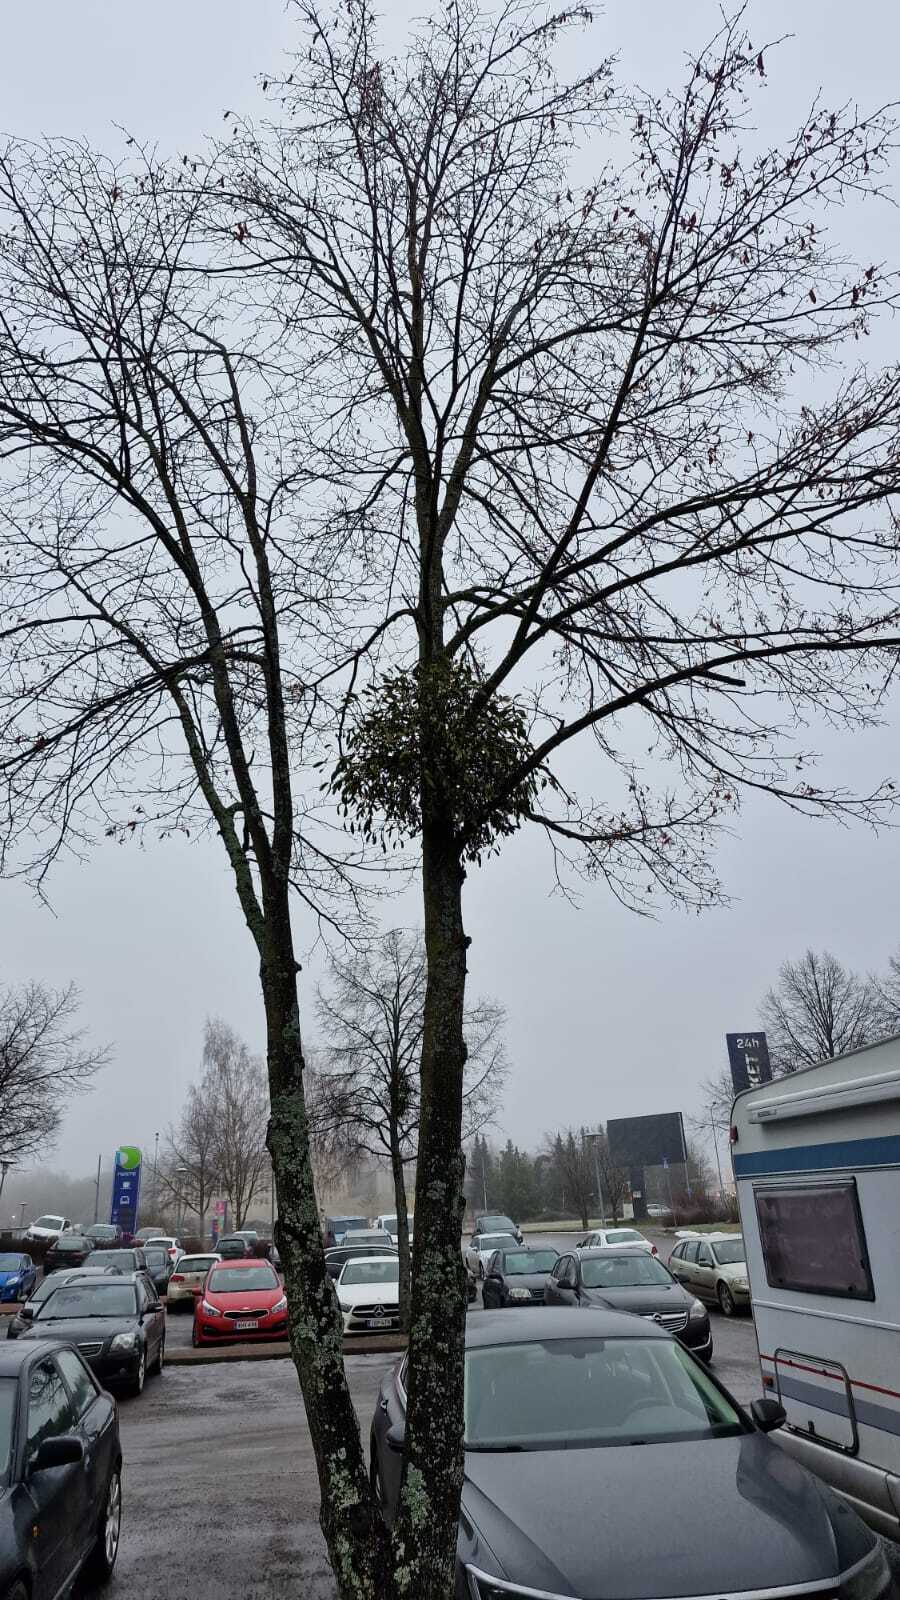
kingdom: Plantae
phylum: Tracheophyta
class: Magnoliopsida
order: Santalales
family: Viscaceae
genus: Viscum
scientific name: Viscum album
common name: Mistletoe
